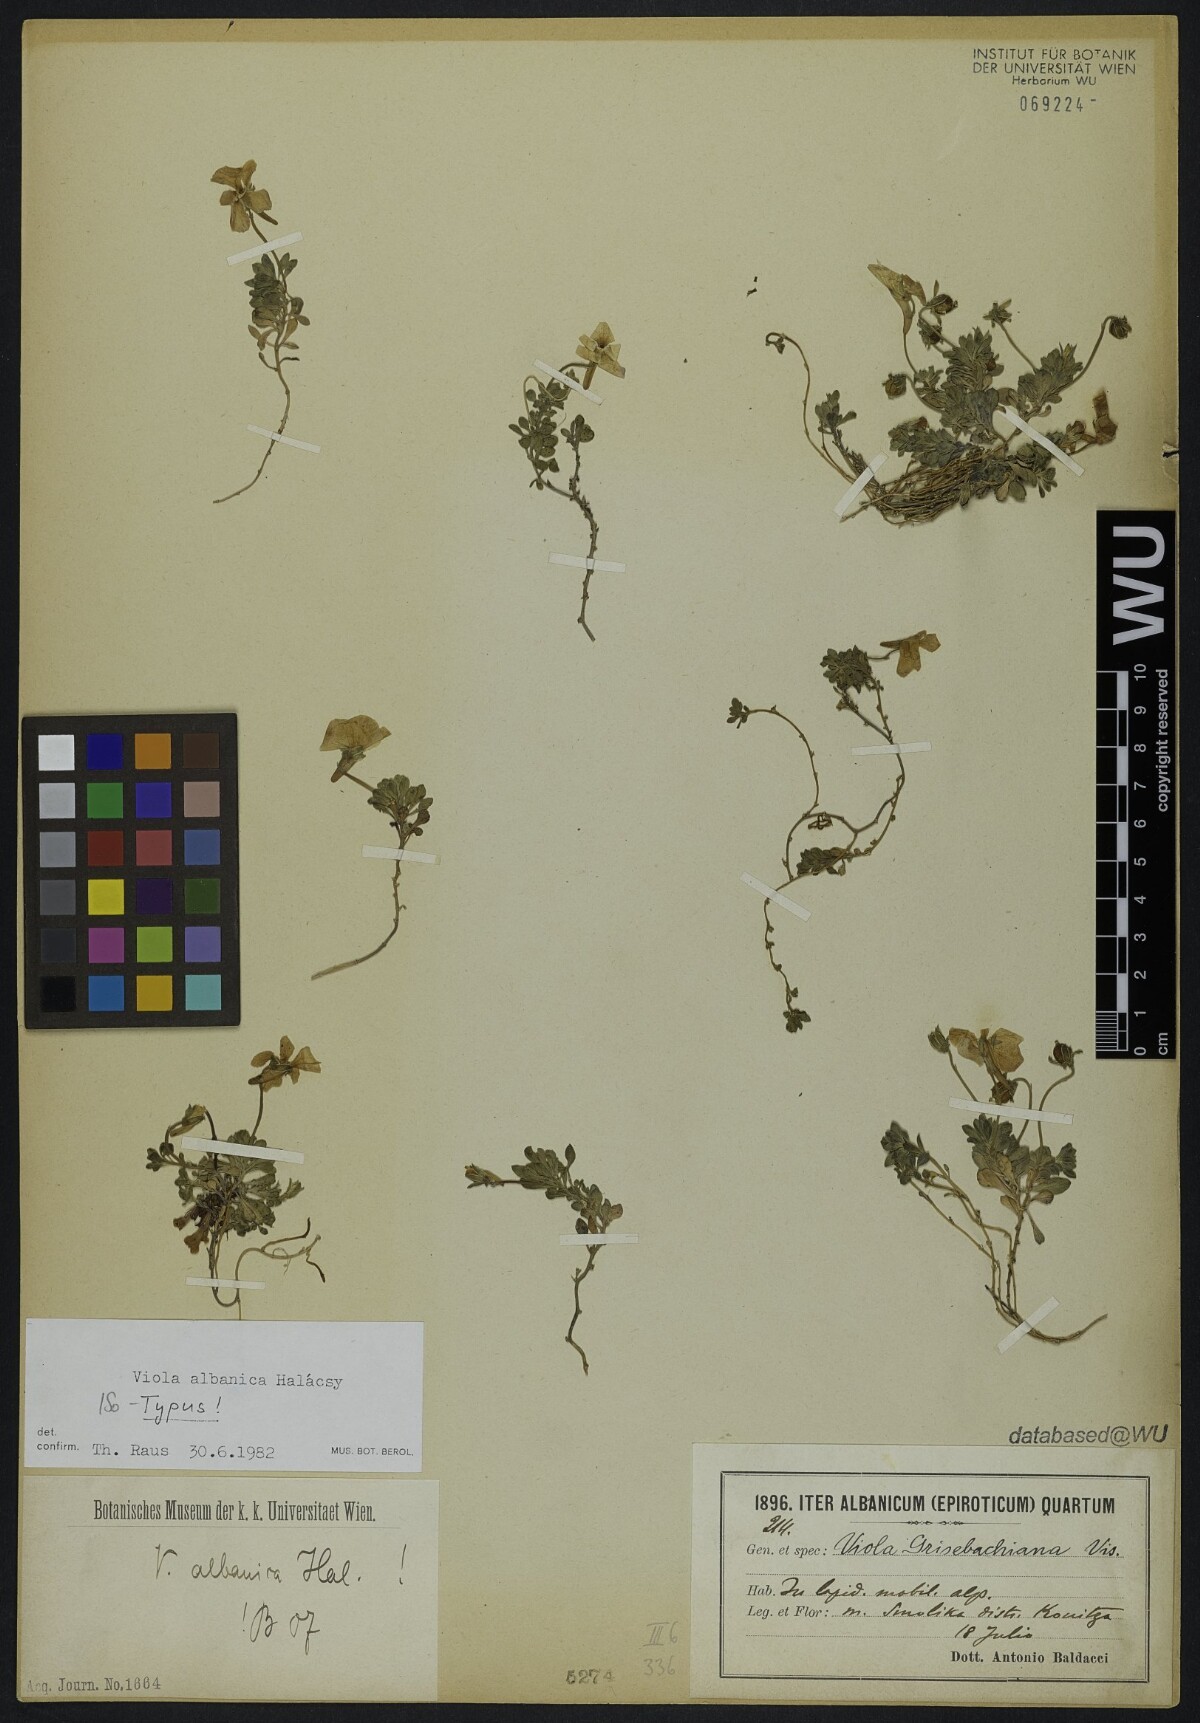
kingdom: Plantae
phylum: Tracheophyta
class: Magnoliopsida
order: Malpighiales
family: Violaceae
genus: Viola
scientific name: Viola albanica
